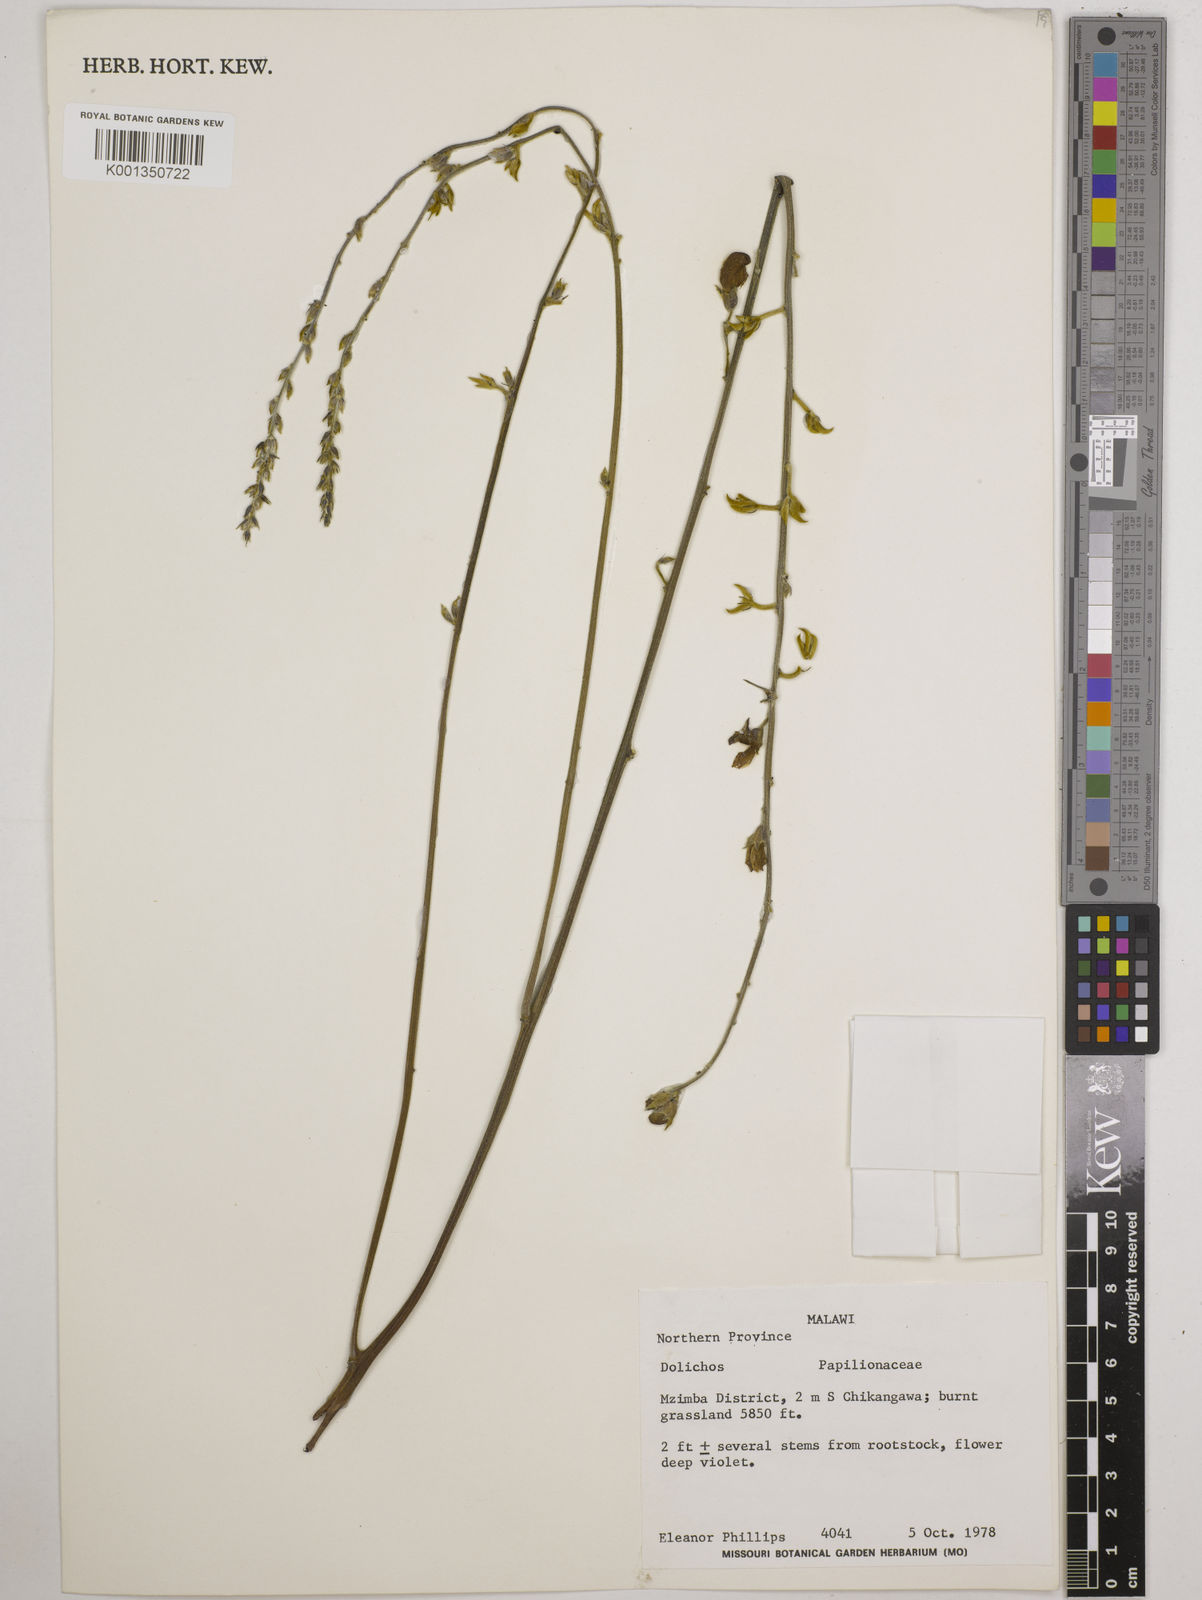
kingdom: Plantae
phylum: Tracheophyta
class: Magnoliopsida
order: Fabales
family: Fabaceae
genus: Dolichos
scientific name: Dolichos
